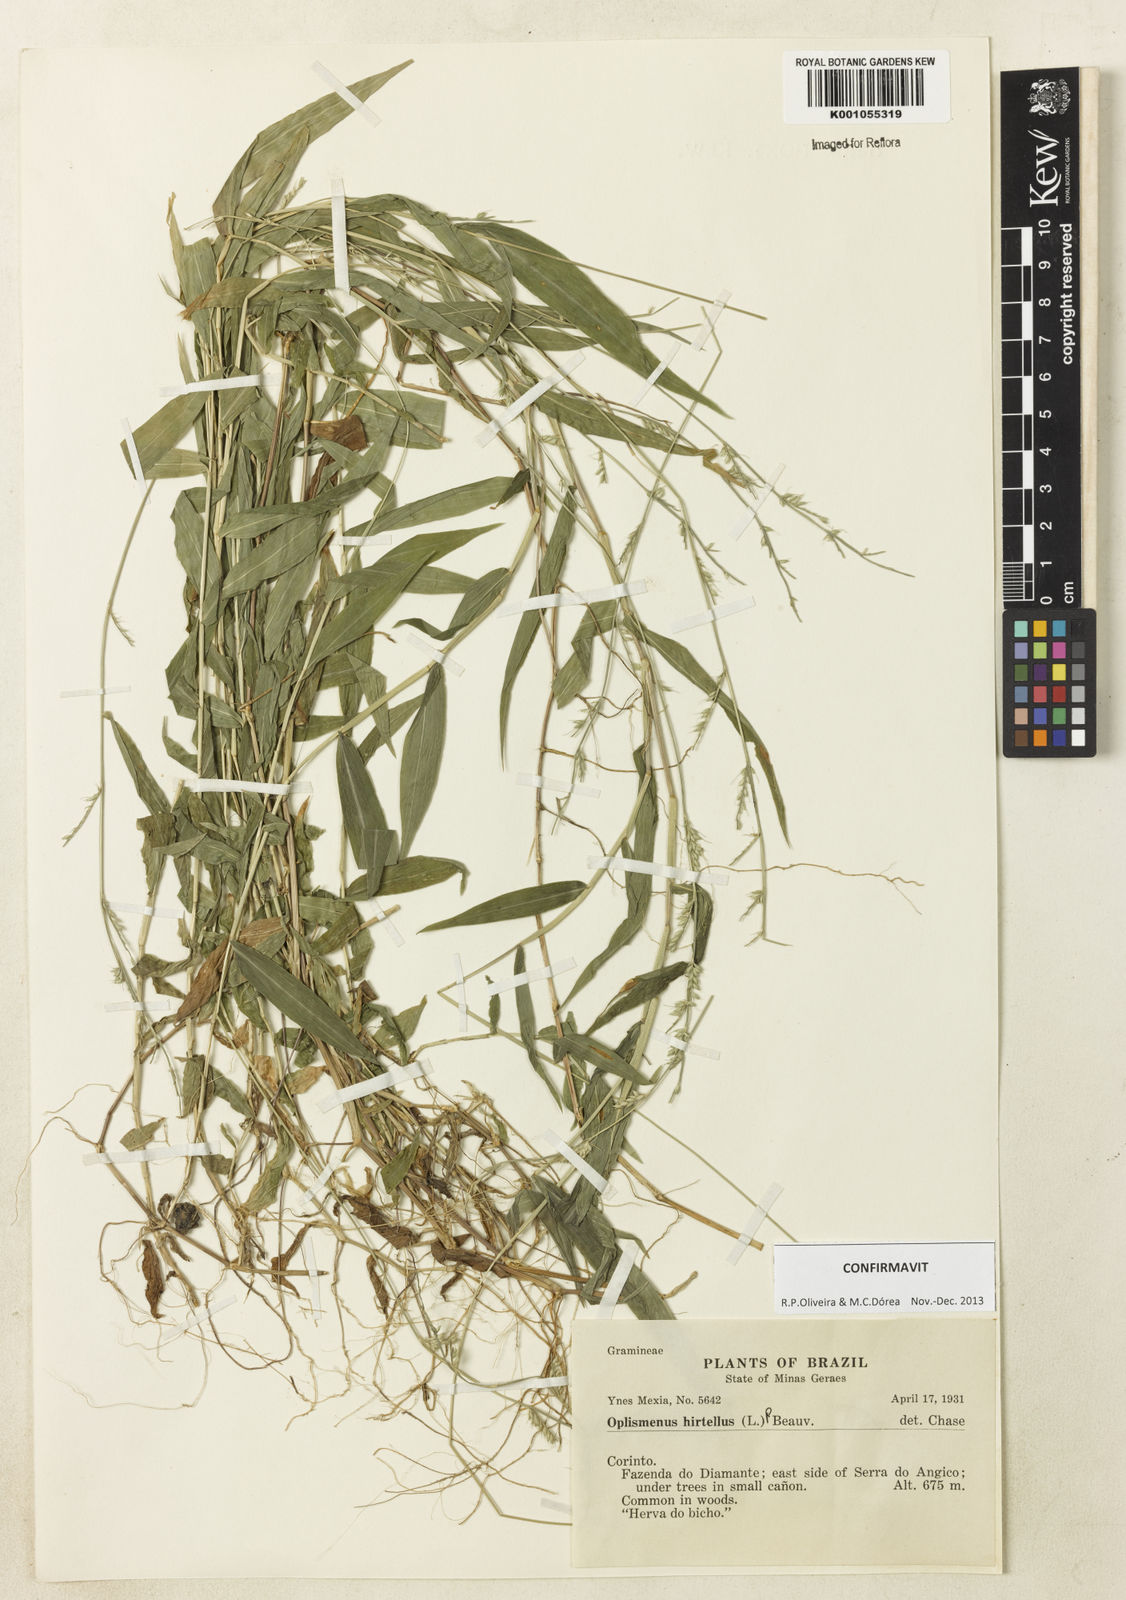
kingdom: Plantae
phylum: Tracheophyta
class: Liliopsida
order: Poales
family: Poaceae
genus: Oplismenus
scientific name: Oplismenus hirtellus
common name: Basketgrass
